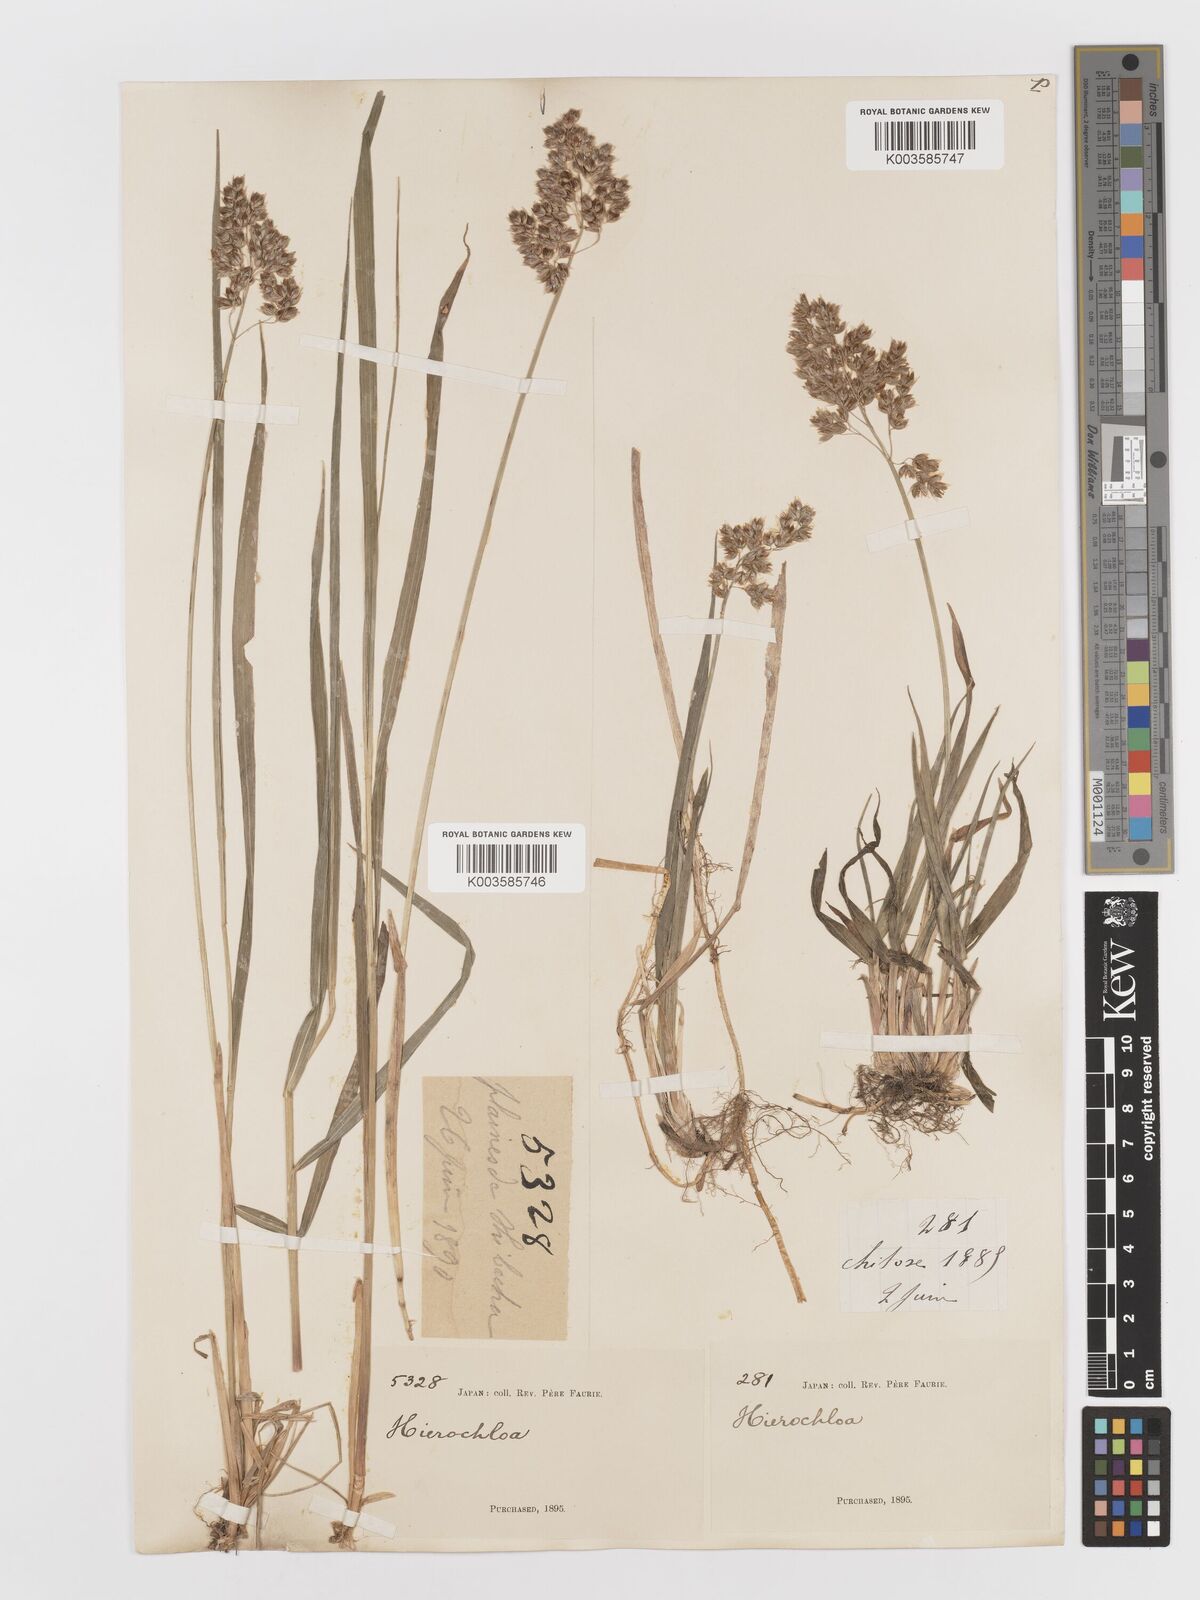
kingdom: Plantae
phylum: Tracheophyta
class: Liliopsida
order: Poales
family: Poaceae
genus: Anthoxanthum
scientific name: Anthoxanthum nitens
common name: Holy grass
